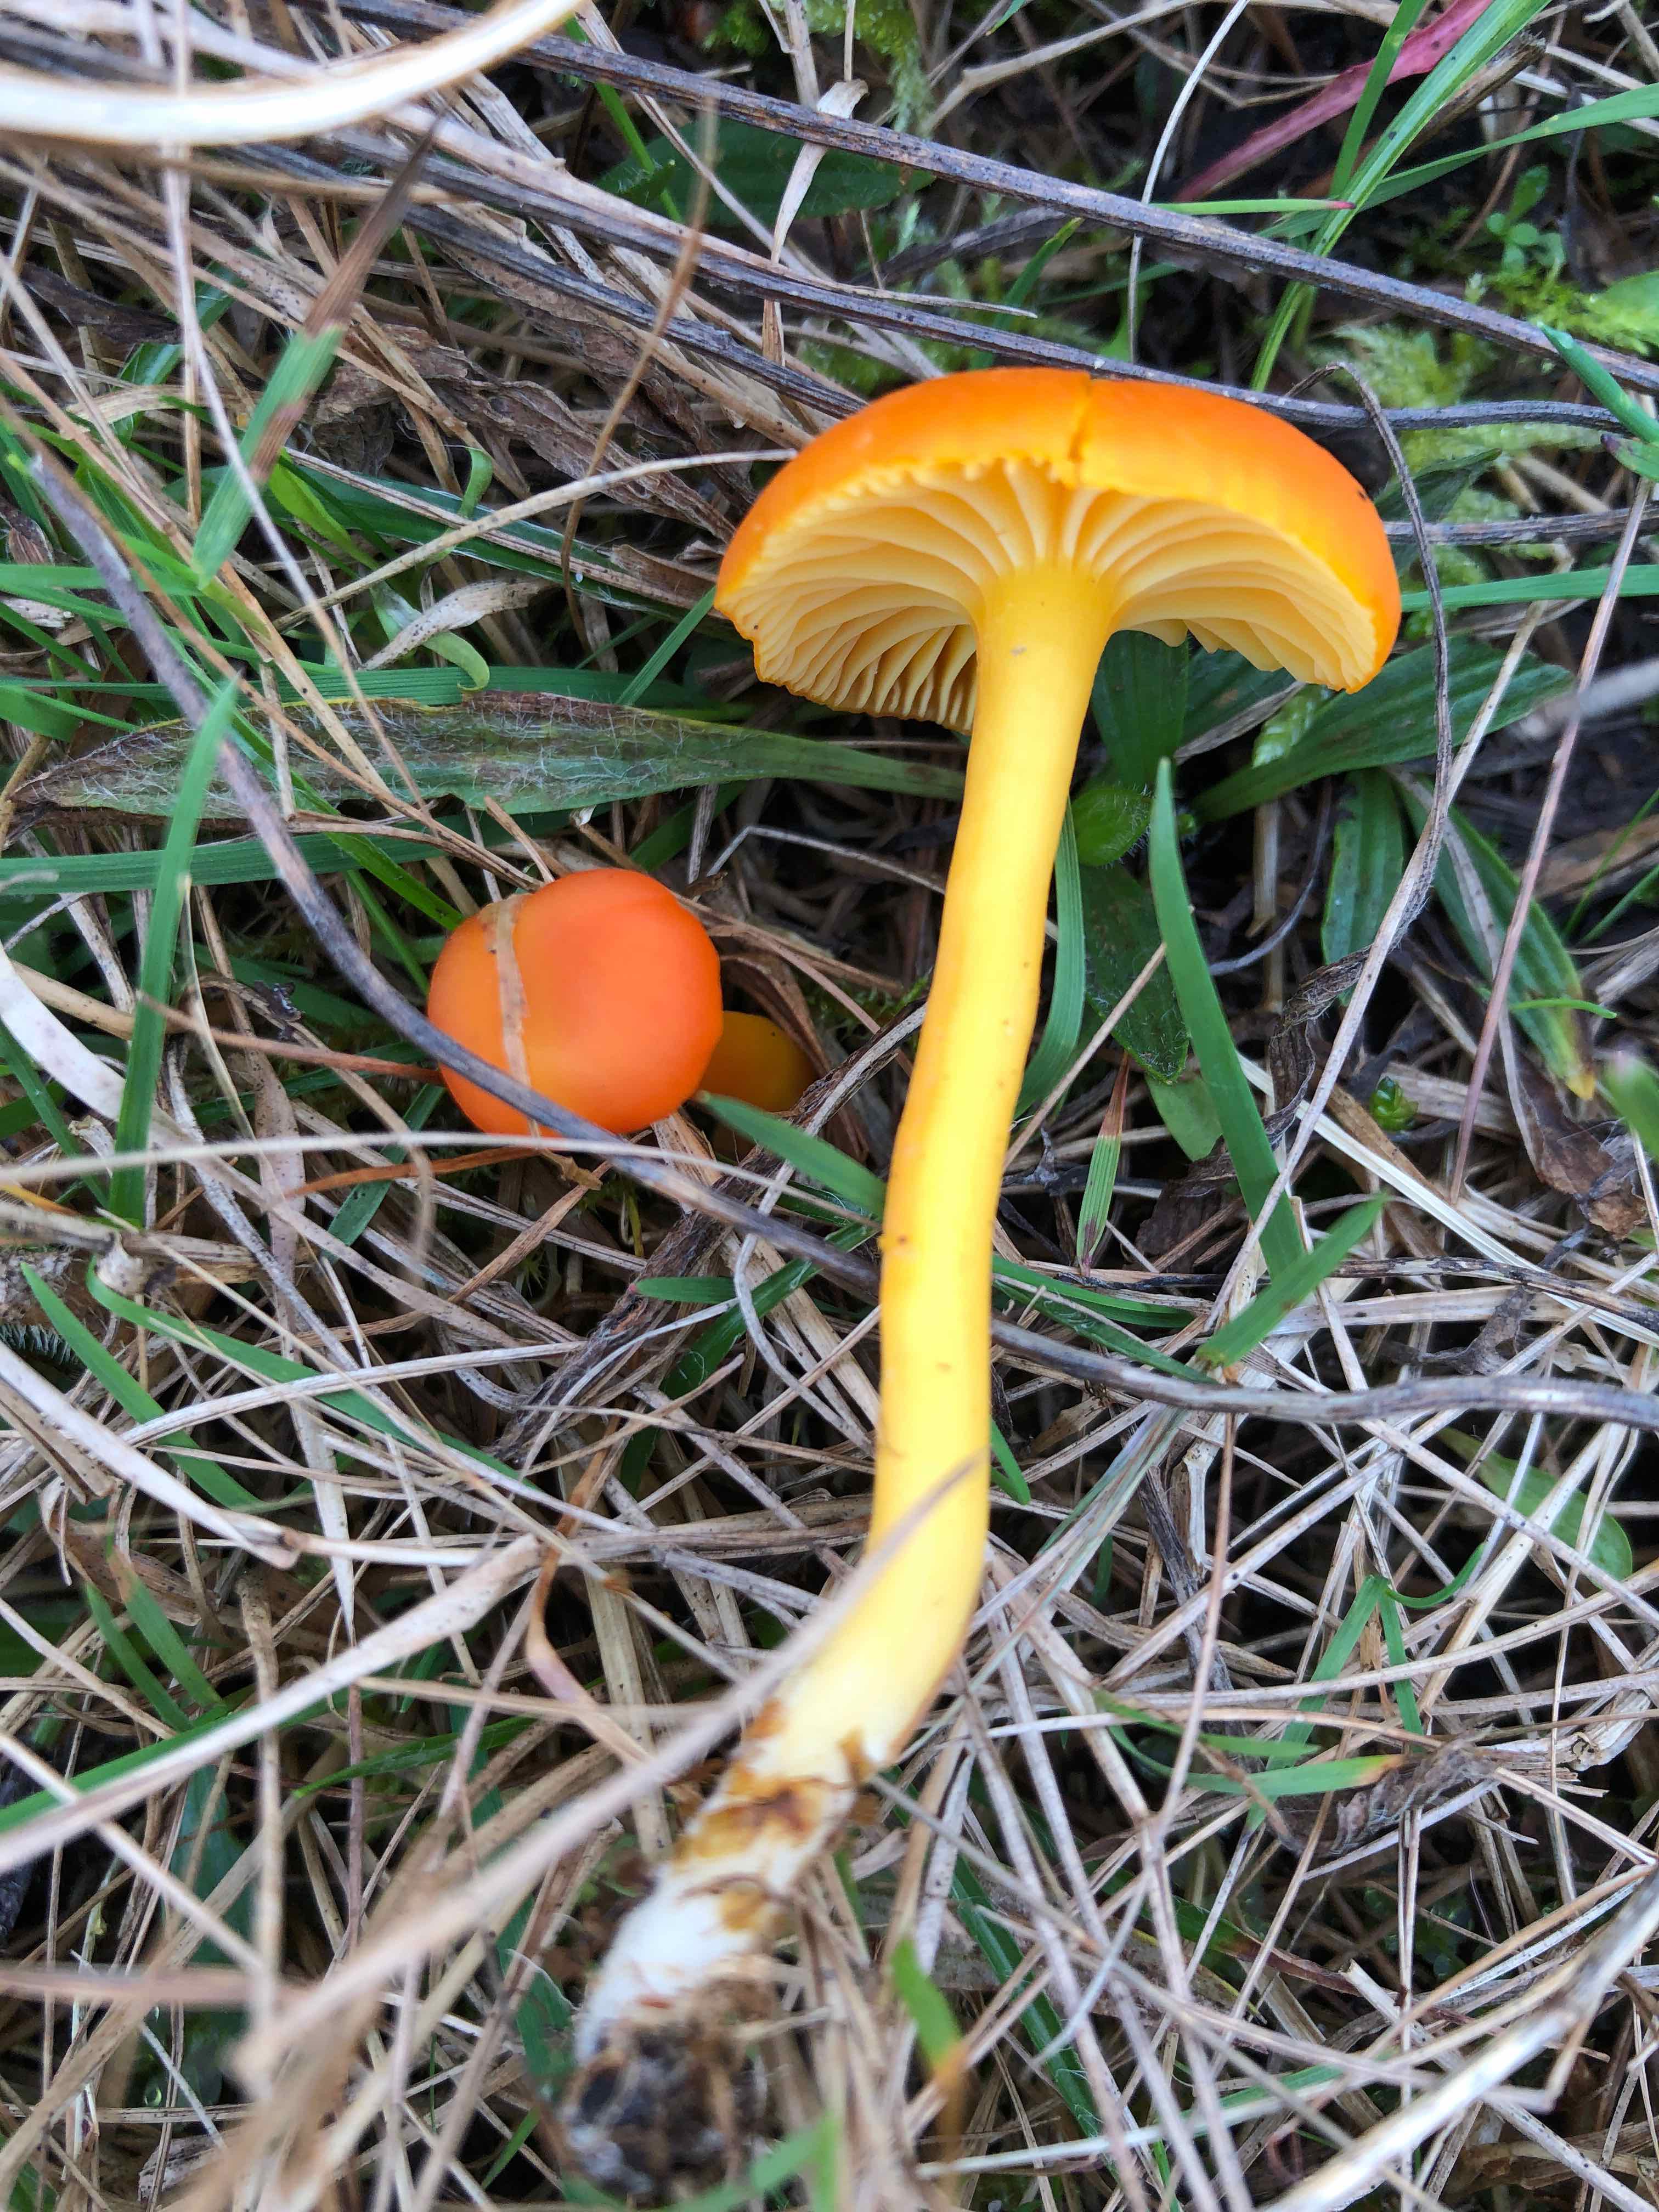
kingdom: Fungi
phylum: Basidiomycota
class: Agaricomycetes
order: Agaricales
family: Hygrophoraceae
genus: Hygrocybe
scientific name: Hygrocybe reidii
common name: honning-vokshat
